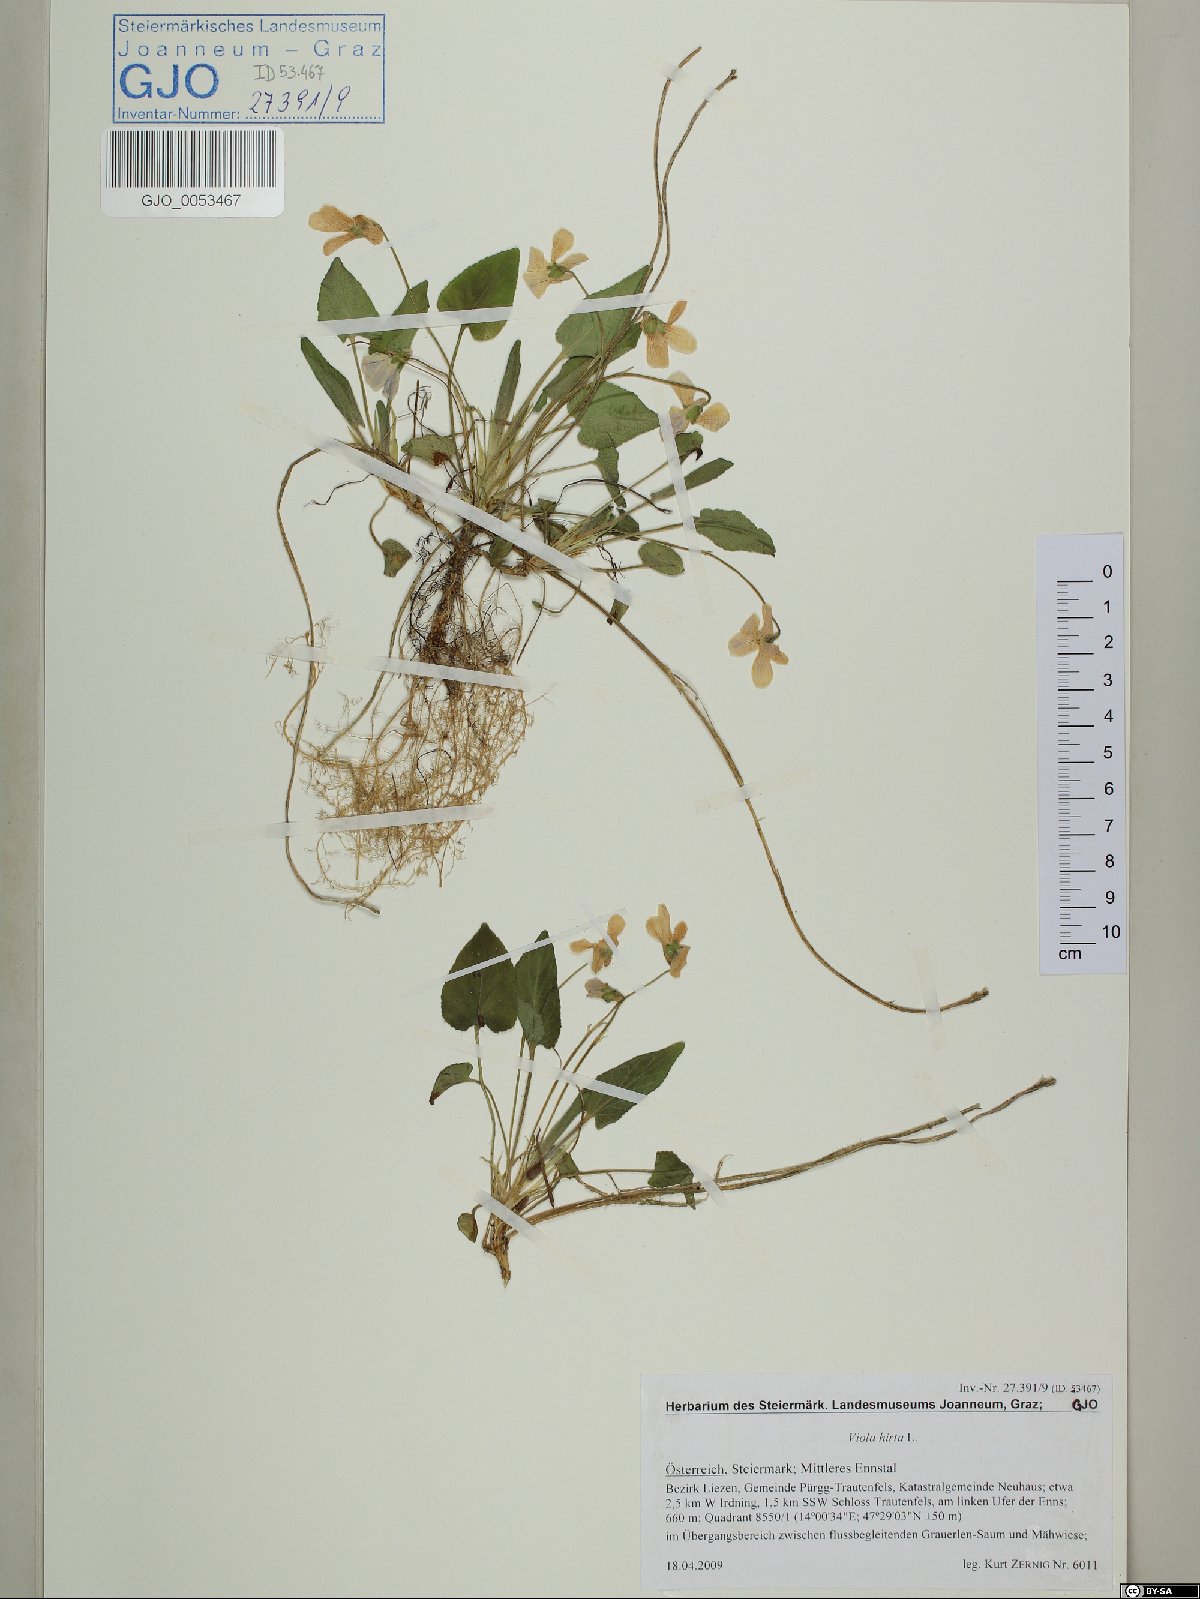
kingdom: Plantae
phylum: Tracheophyta
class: Magnoliopsida
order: Malpighiales
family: Violaceae
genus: Viola
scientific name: Viola hirta
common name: Hairy violet
